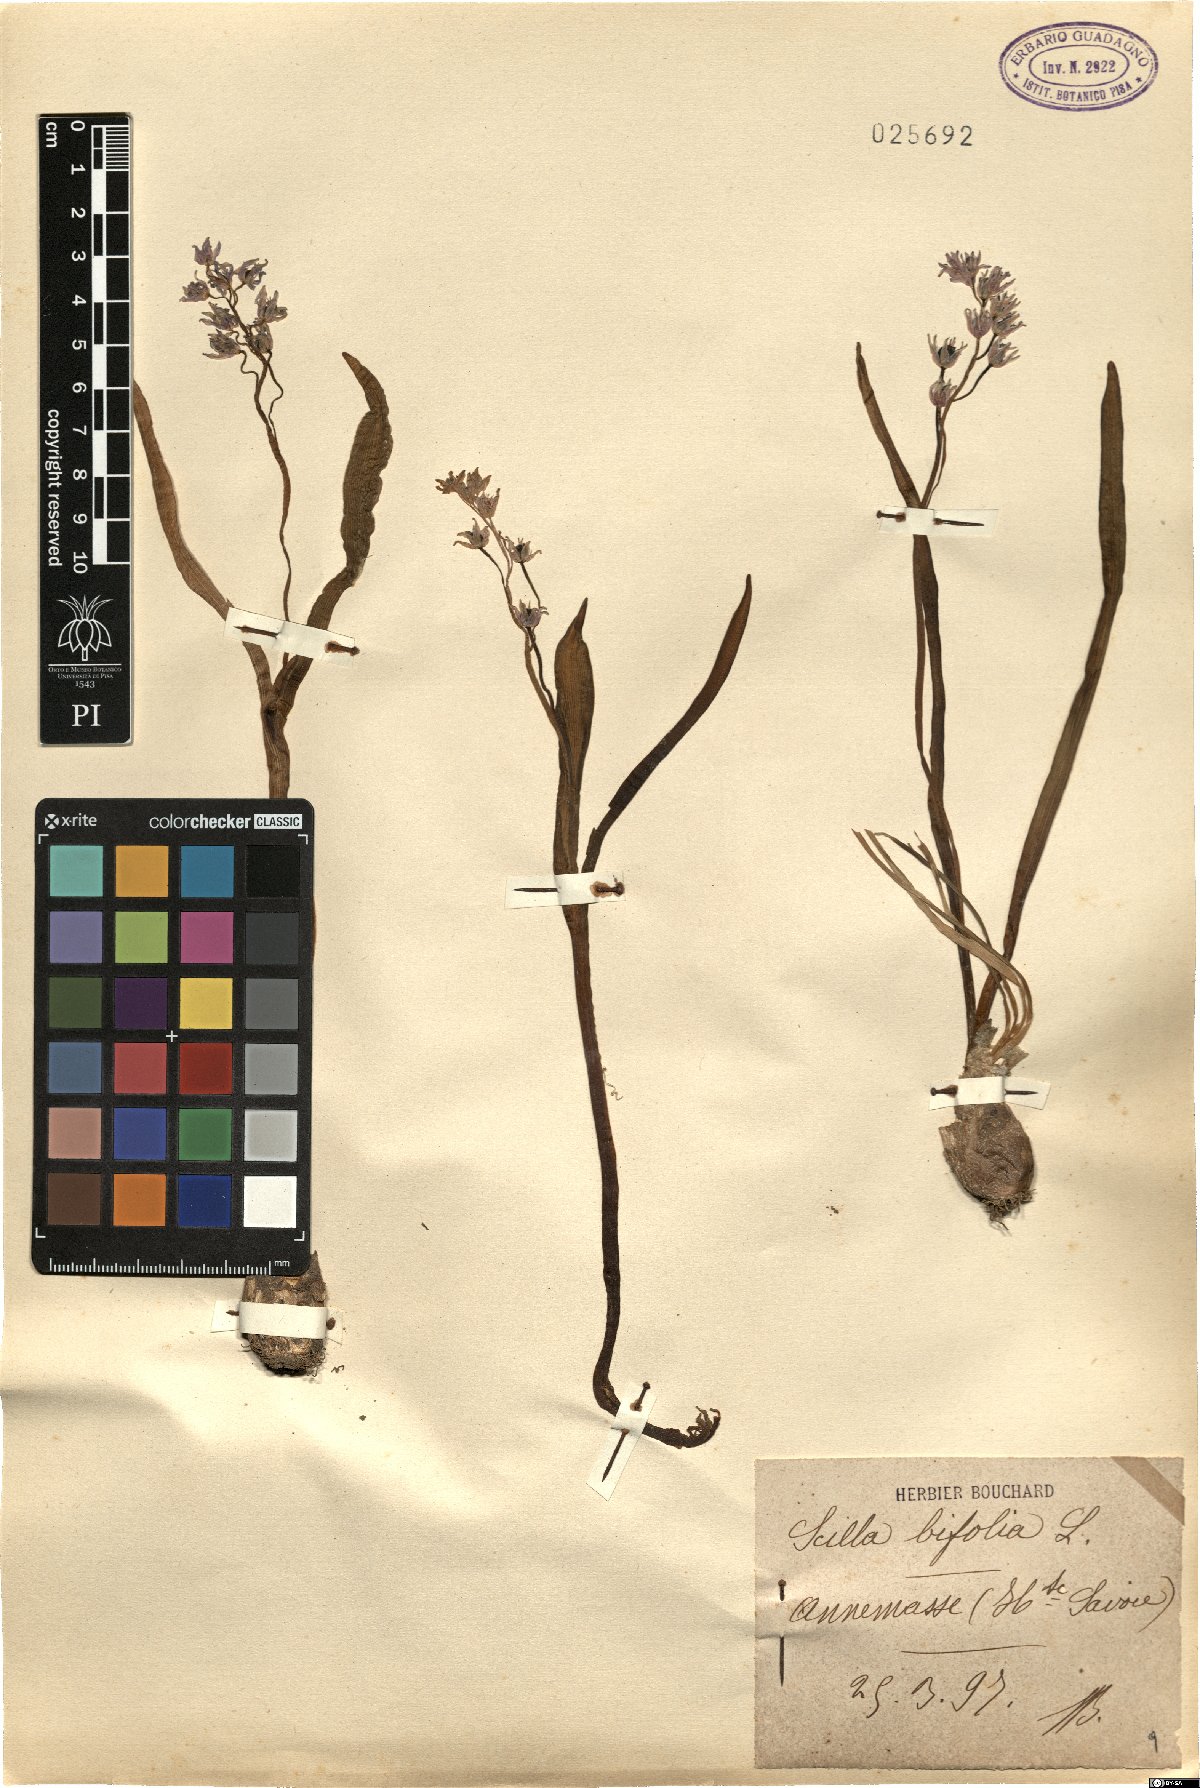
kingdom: Plantae
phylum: Tracheophyta
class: Liliopsida
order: Asparagales
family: Asparagaceae
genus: Scilla
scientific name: Scilla bifolia
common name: Alpine squill
